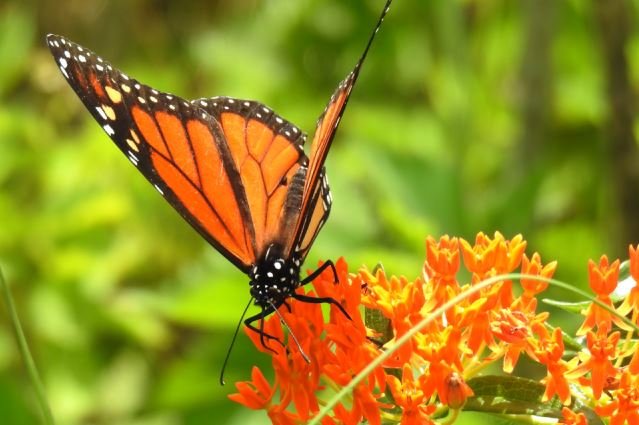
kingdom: Animalia
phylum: Arthropoda
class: Insecta
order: Lepidoptera
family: Nymphalidae
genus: Danaus
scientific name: Danaus plexippus
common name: Monarch
